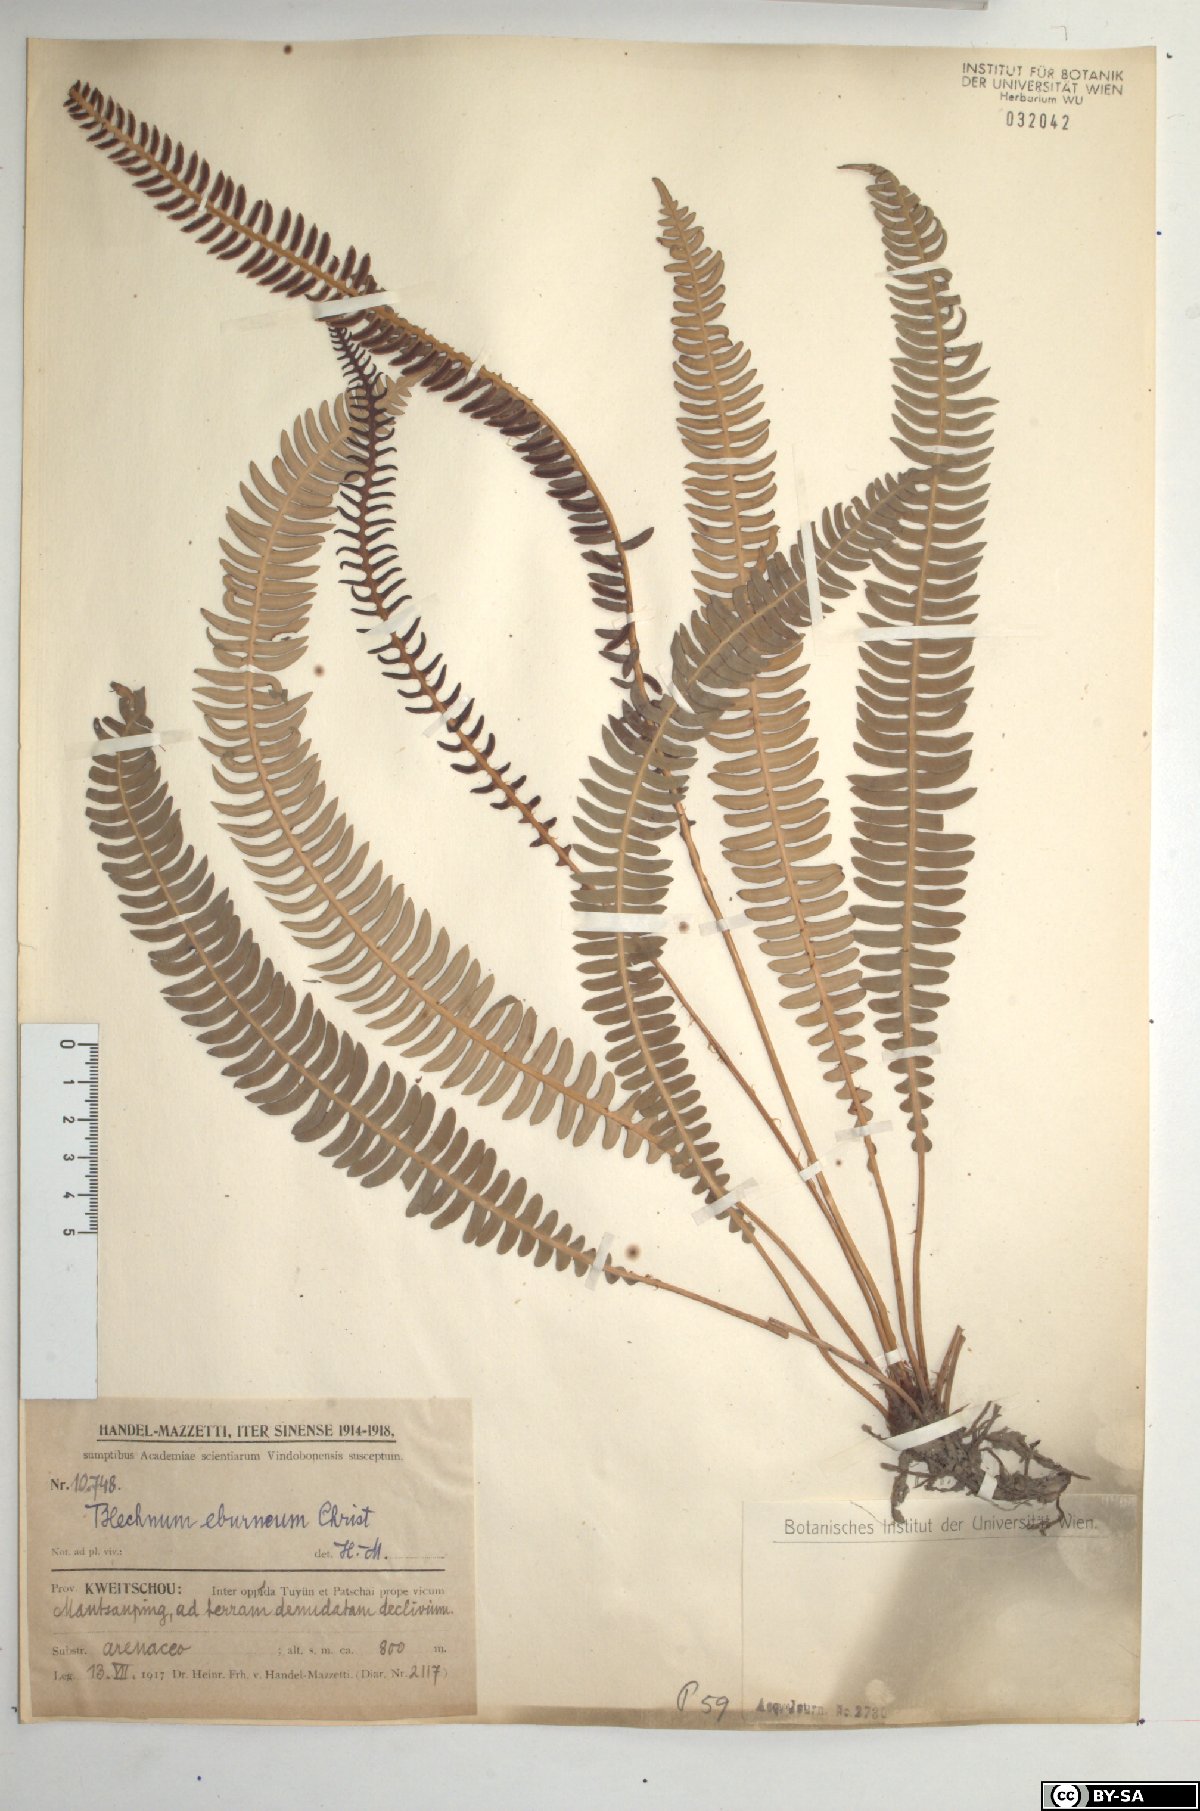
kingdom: Plantae
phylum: Tracheophyta
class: Polypodiopsida
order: Polypodiales
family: Blechnaceae
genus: Cleistoblechnum
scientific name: Cleistoblechnum eburneum
